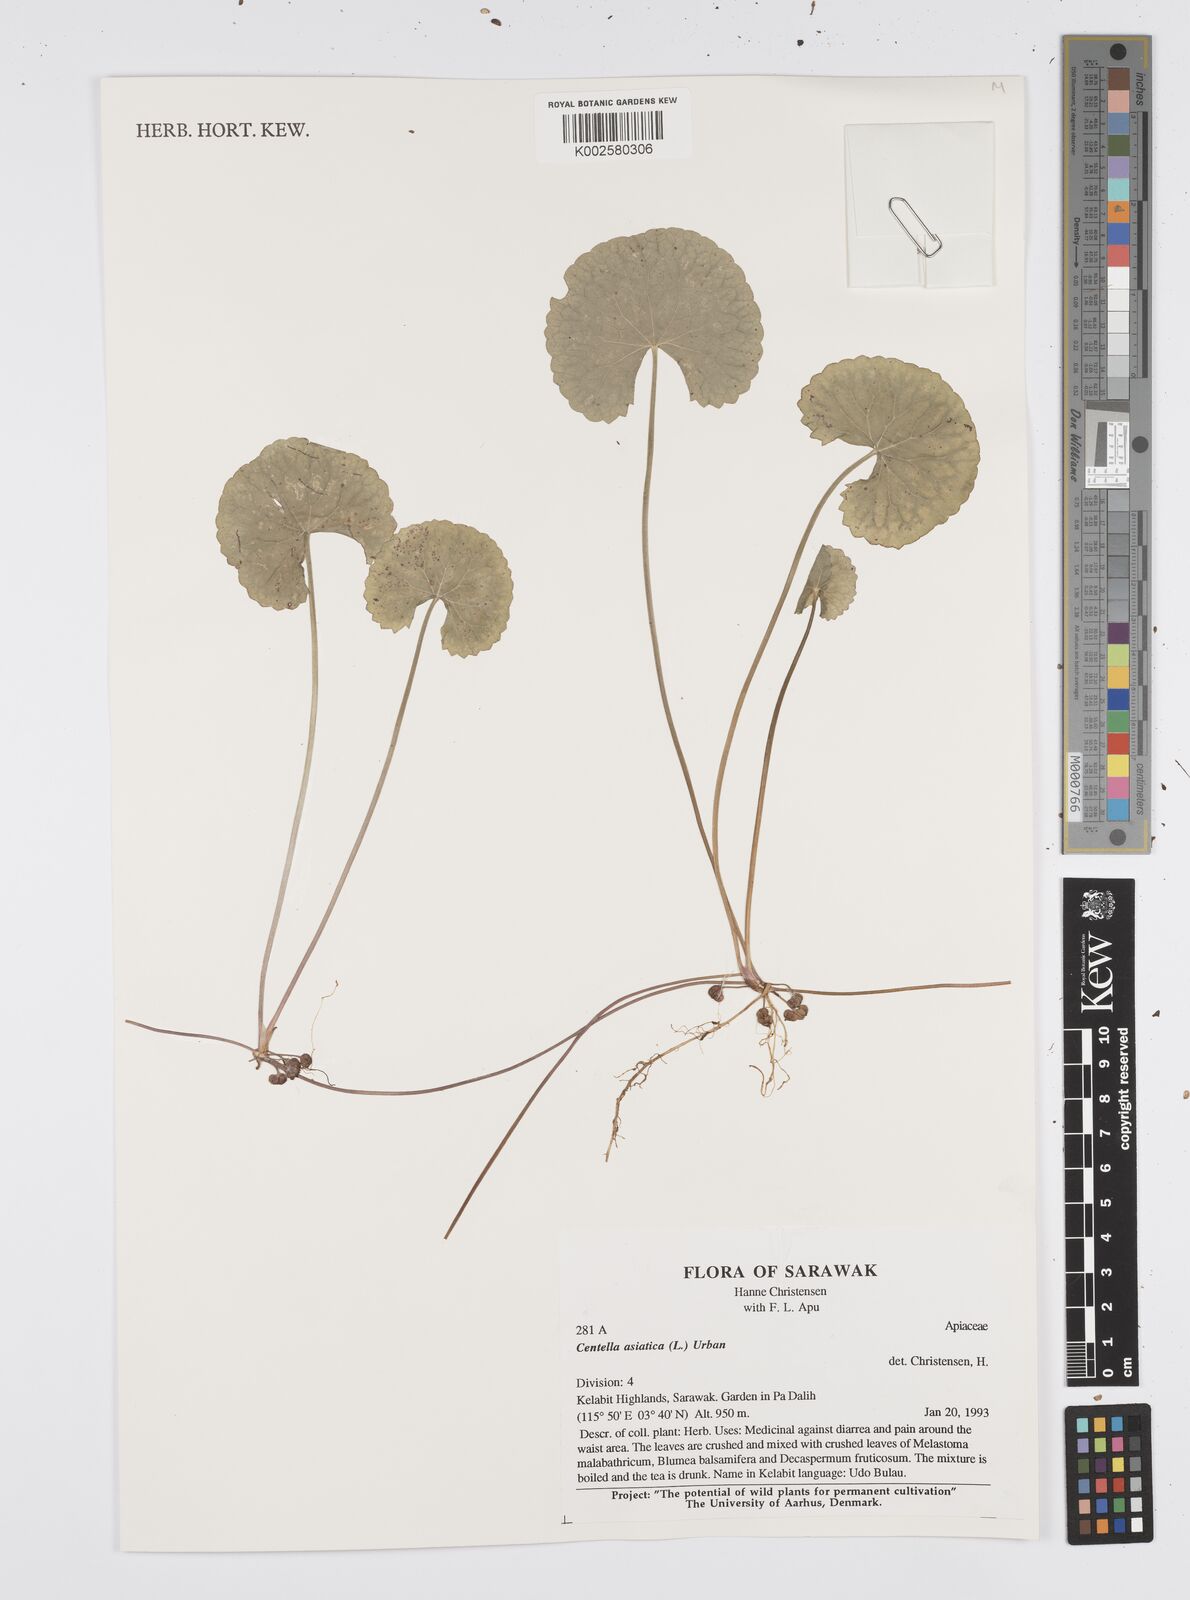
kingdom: Plantae
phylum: Tracheophyta
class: Magnoliopsida
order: Apiales
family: Apiaceae
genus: Centella
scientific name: Centella asiatica
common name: Spadeleaf
